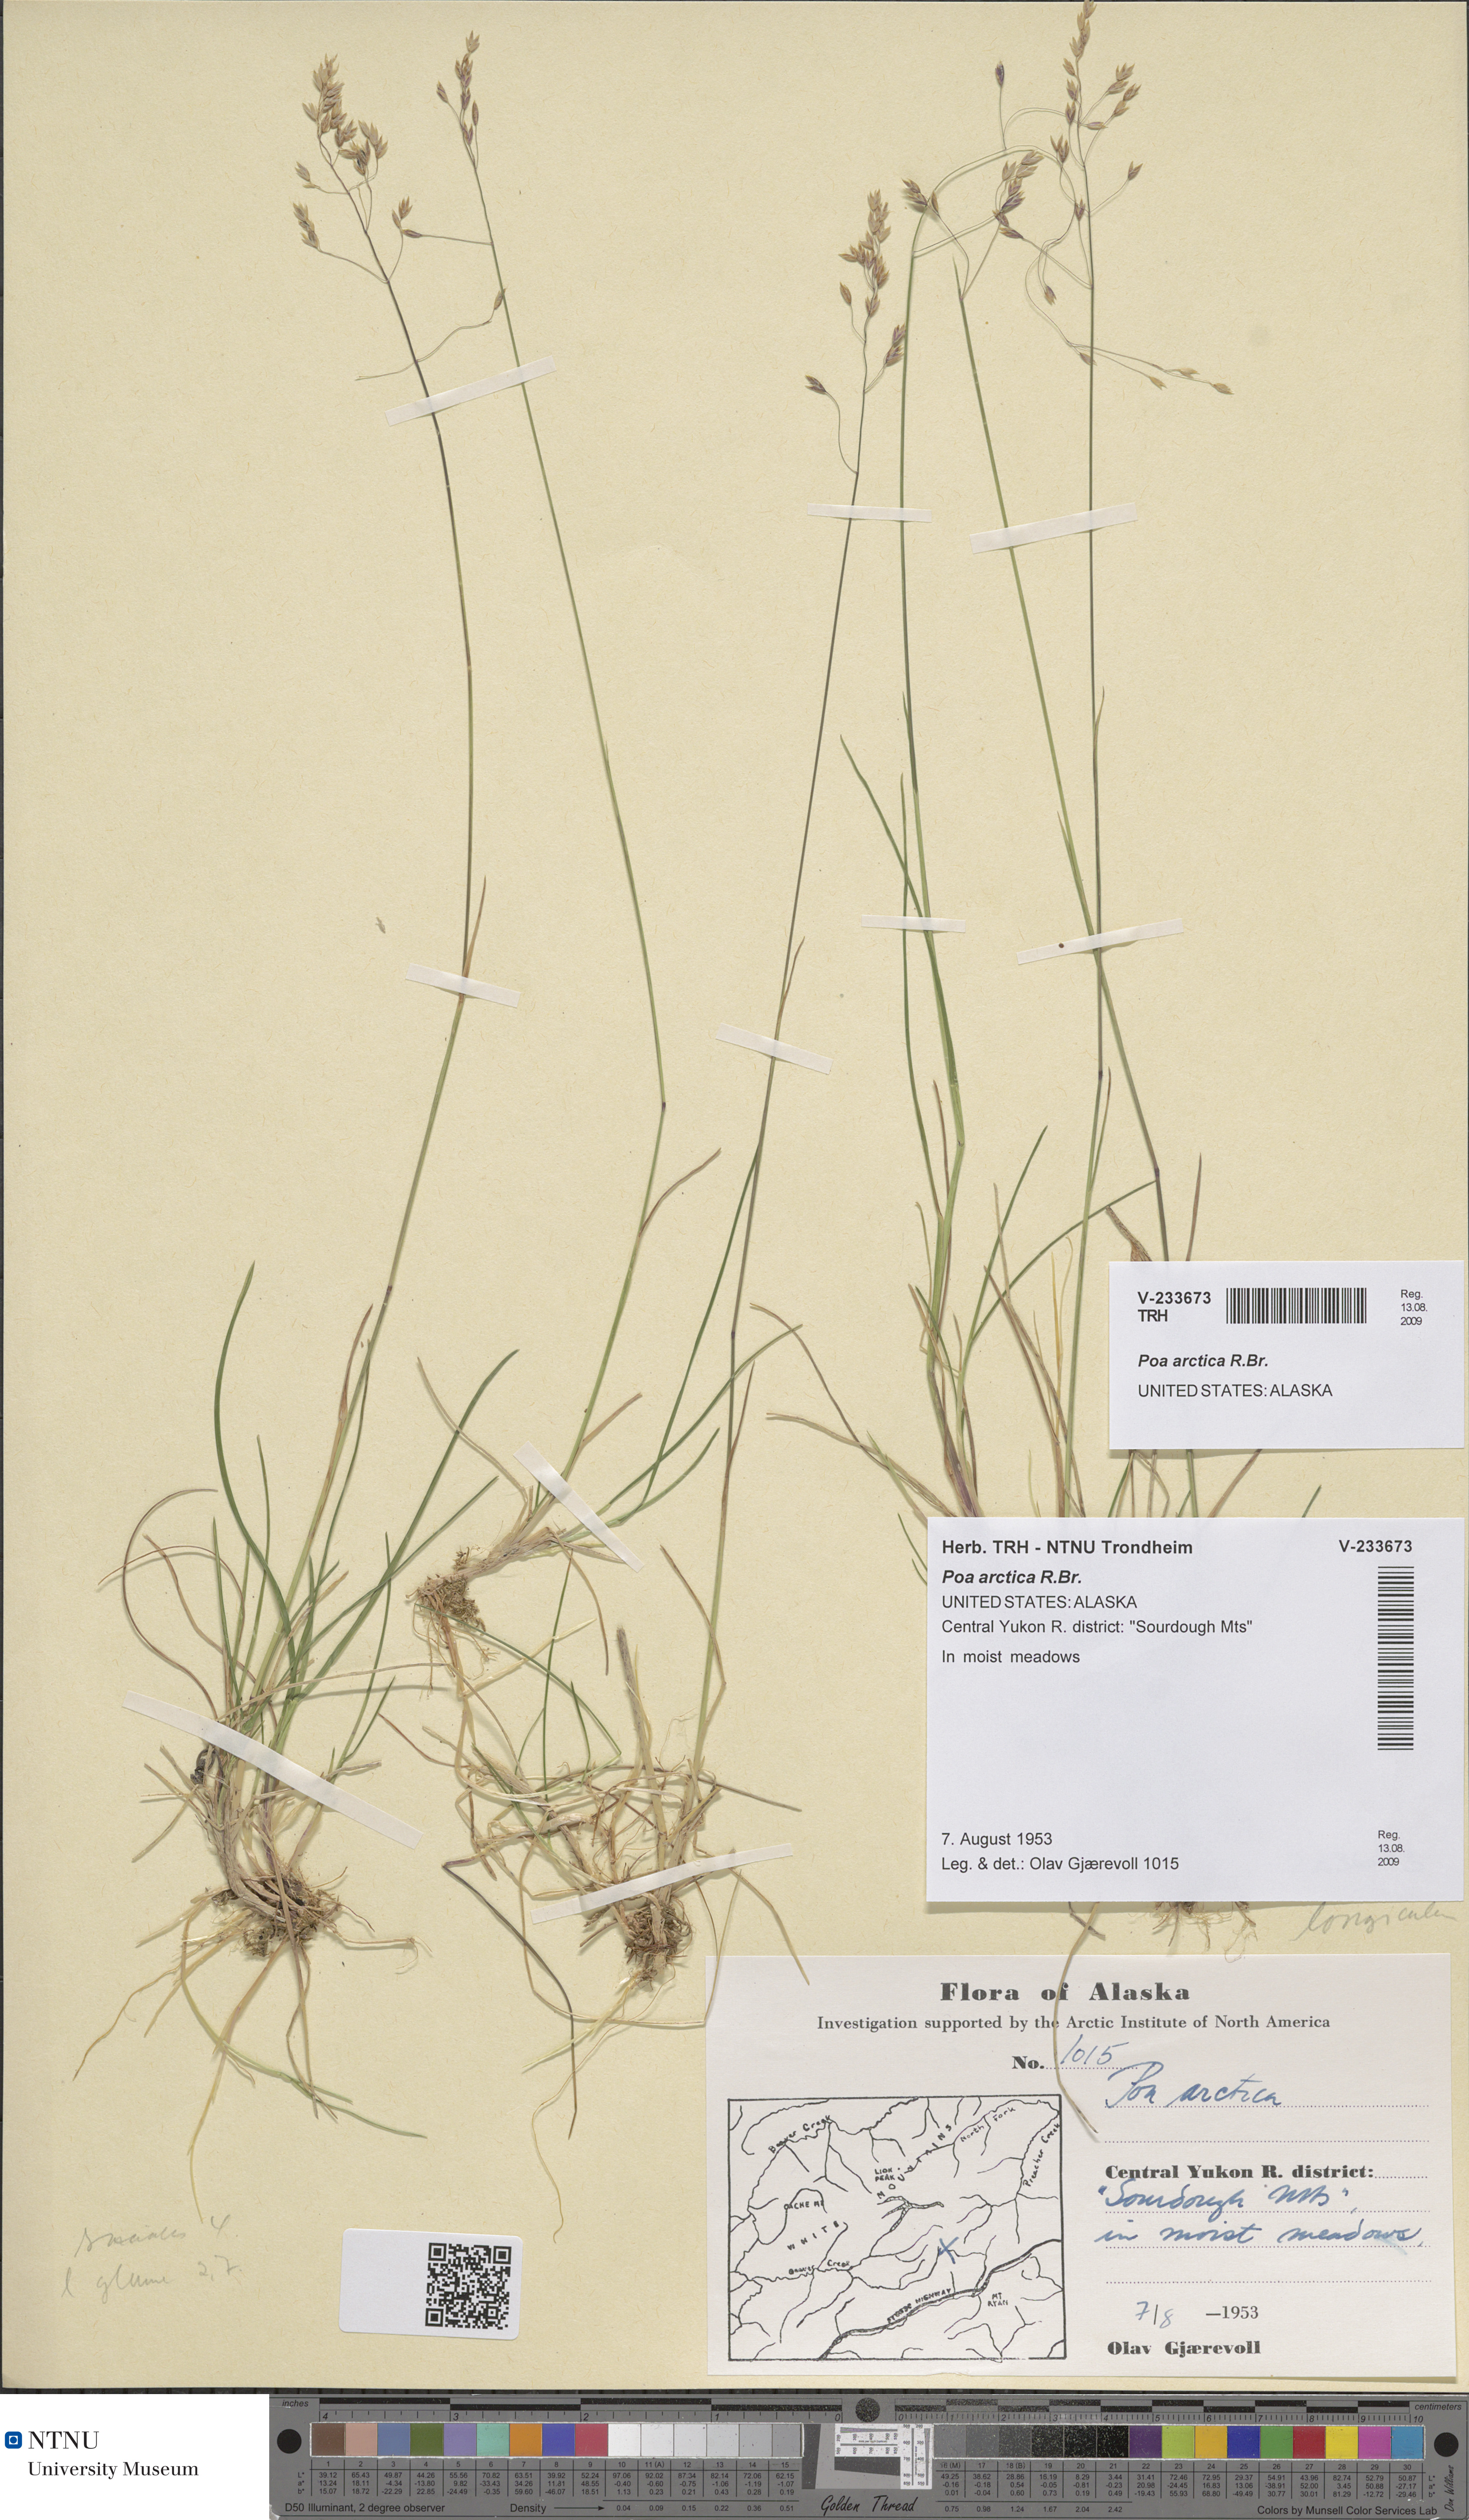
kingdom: Plantae
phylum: Tracheophyta
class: Liliopsida
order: Poales
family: Poaceae
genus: Poa
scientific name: Poa arctica
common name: Arctic bluegrass
